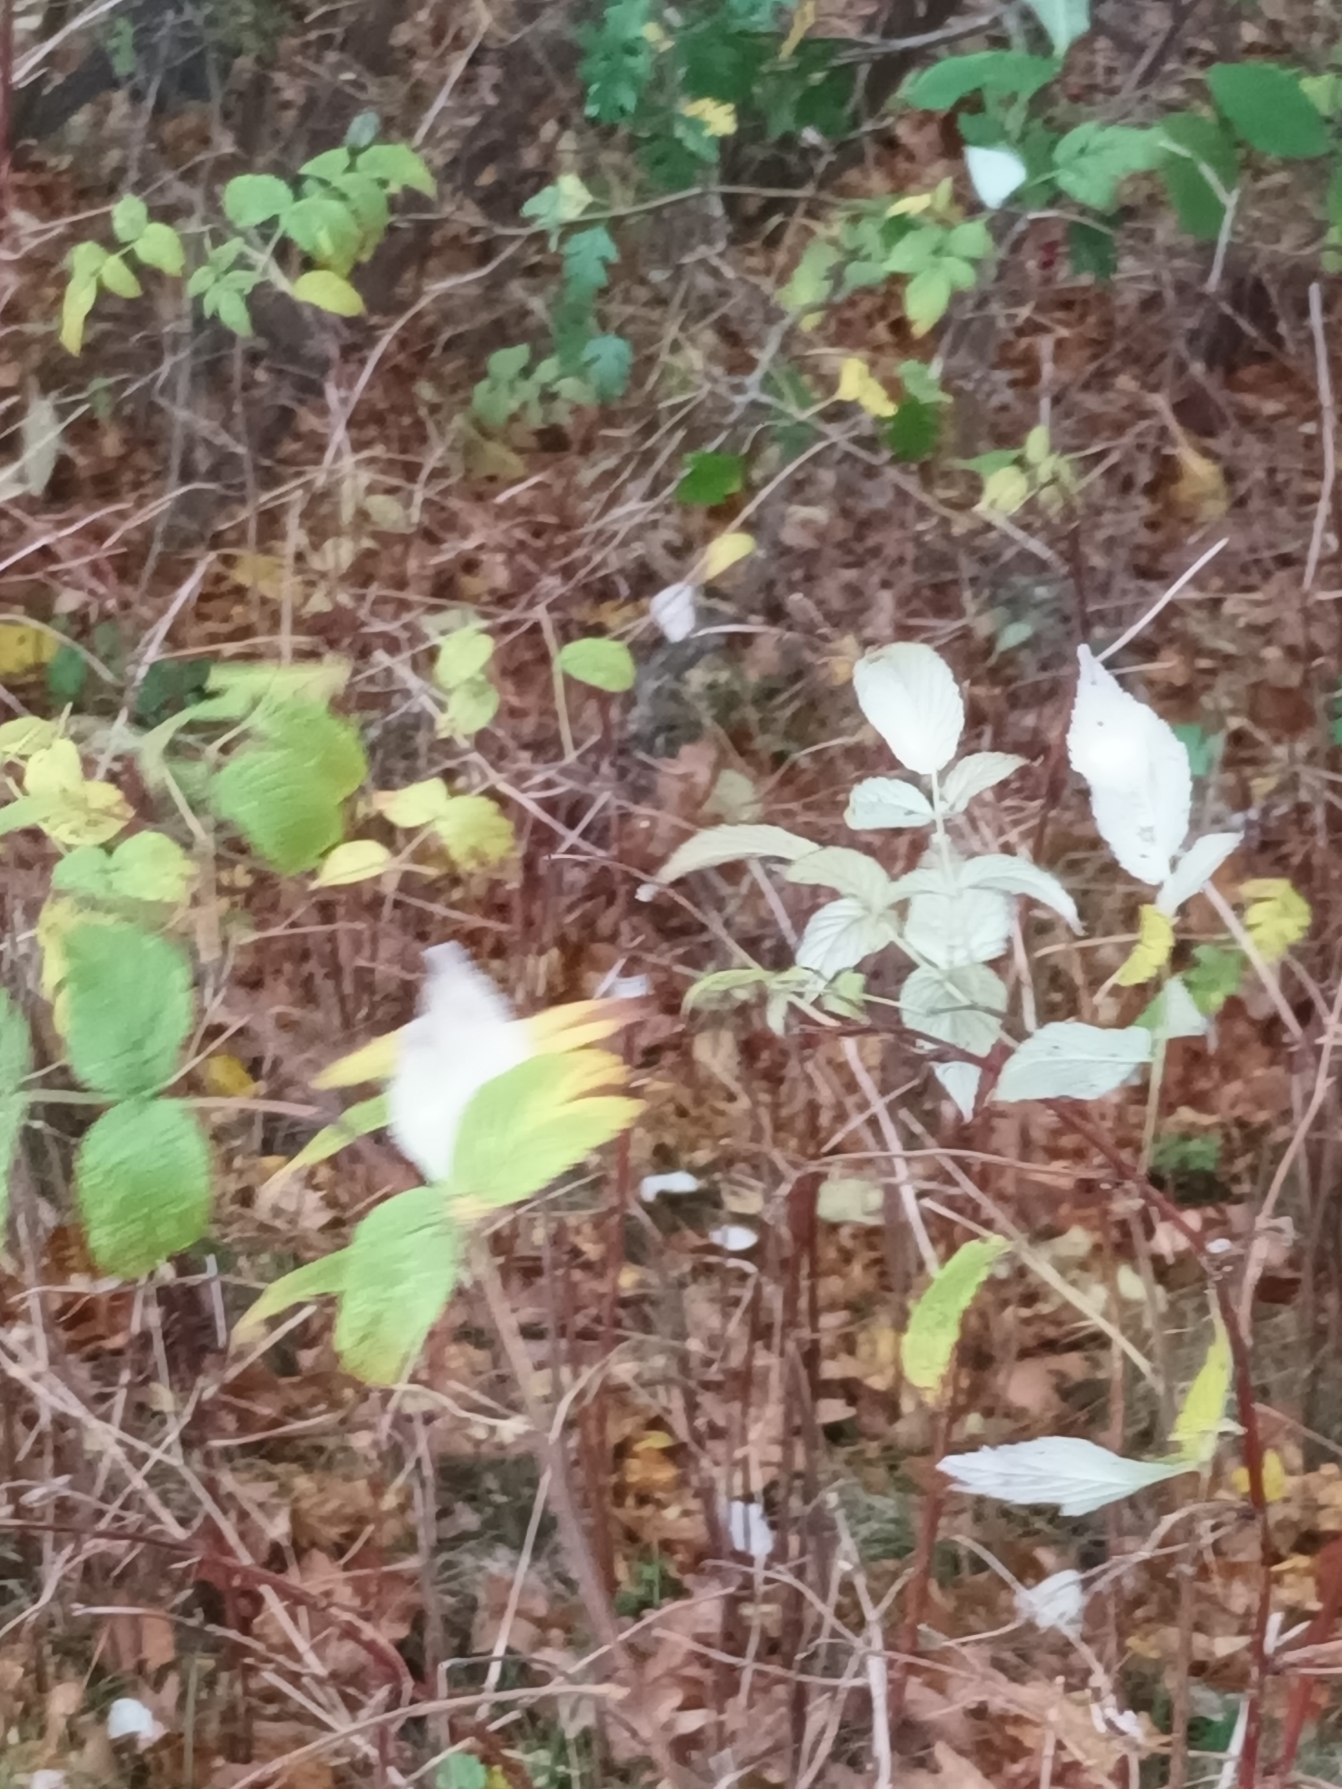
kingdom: Plantae
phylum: Tracheophyta
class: Magnoliopsida
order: Rosales
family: Rosaceae
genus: Rubus
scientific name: Rubus idaeus
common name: Hindbær
